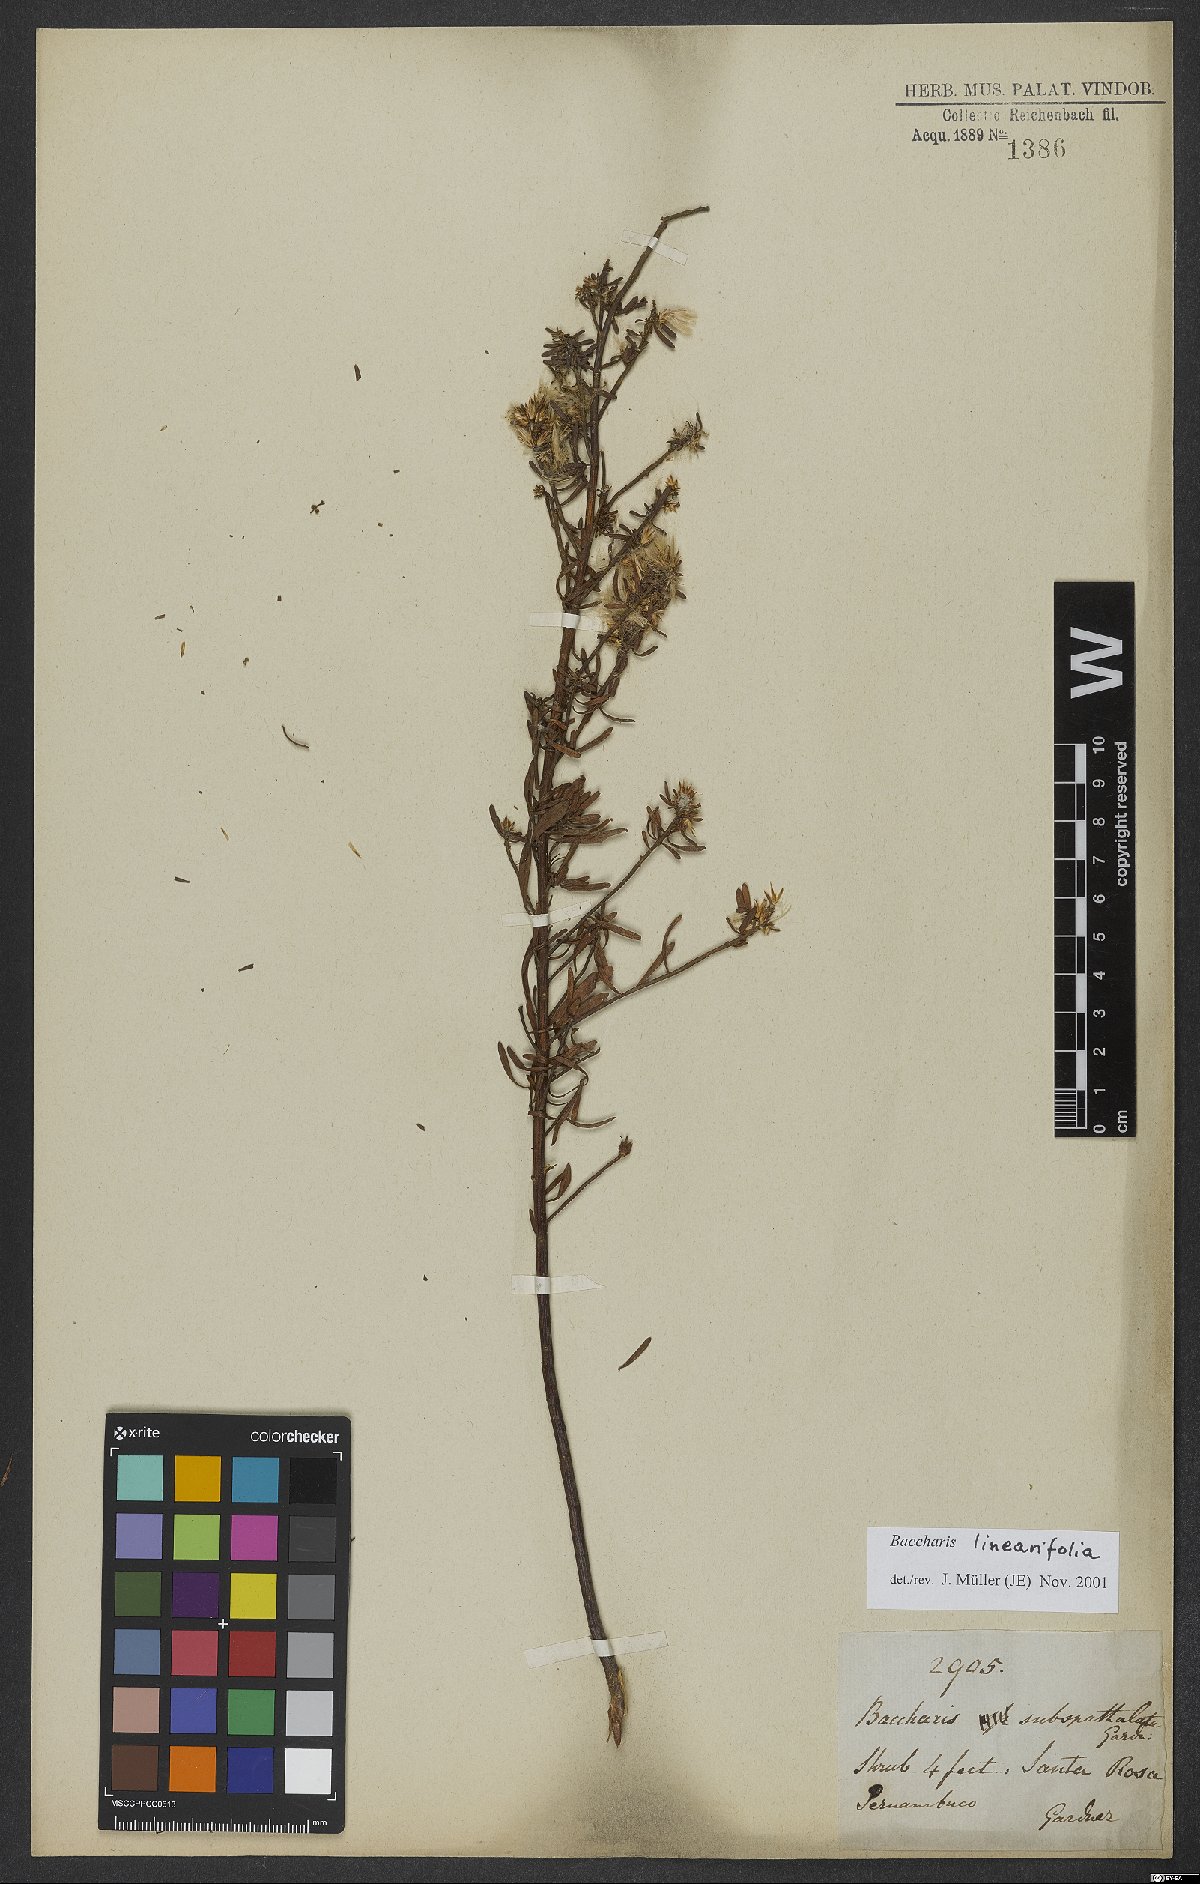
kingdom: Plantae
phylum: Tracheophyta
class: Magnoliopsida
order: Asterales
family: Asteraceae
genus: Baccharis
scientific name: Baccharis linearifolia
